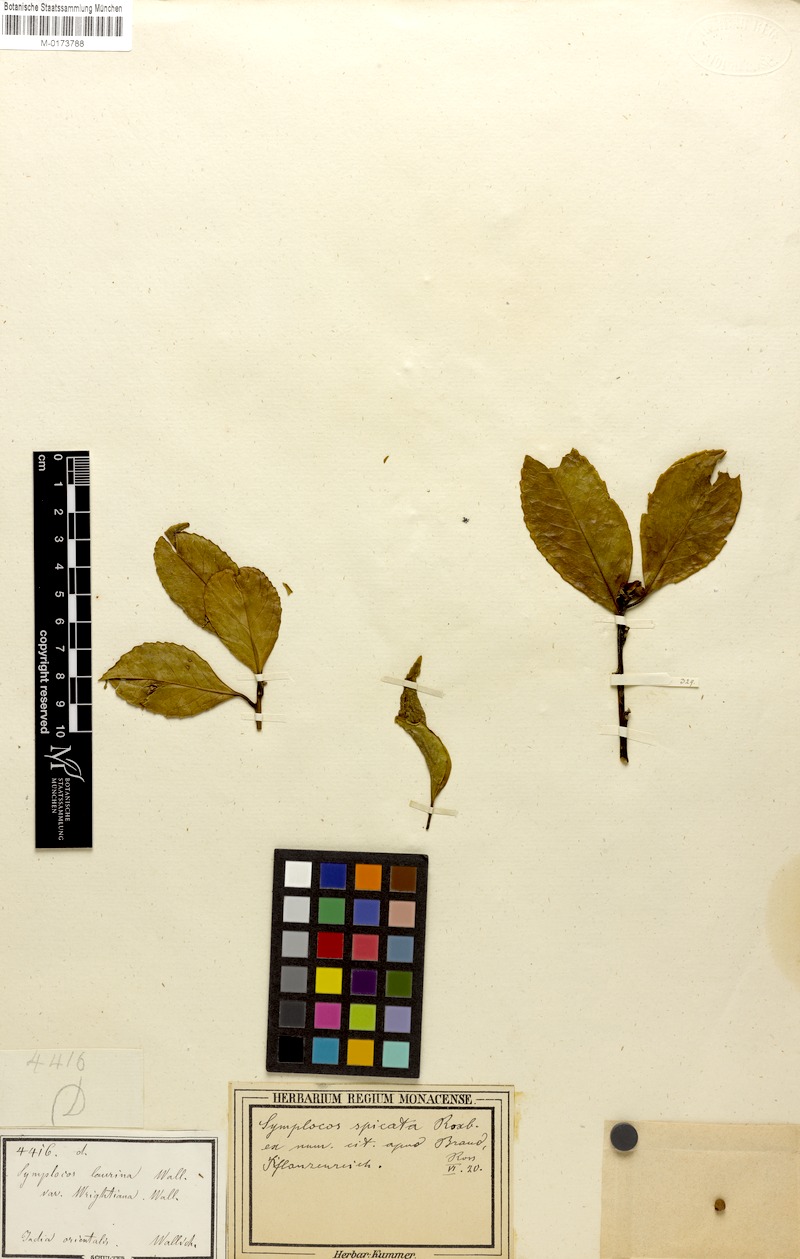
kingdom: Plantae
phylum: Tracheophyta
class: Magnoliopsida
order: Ericales
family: Symplocaceae
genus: Symplocos
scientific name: Symplocos acuminata
